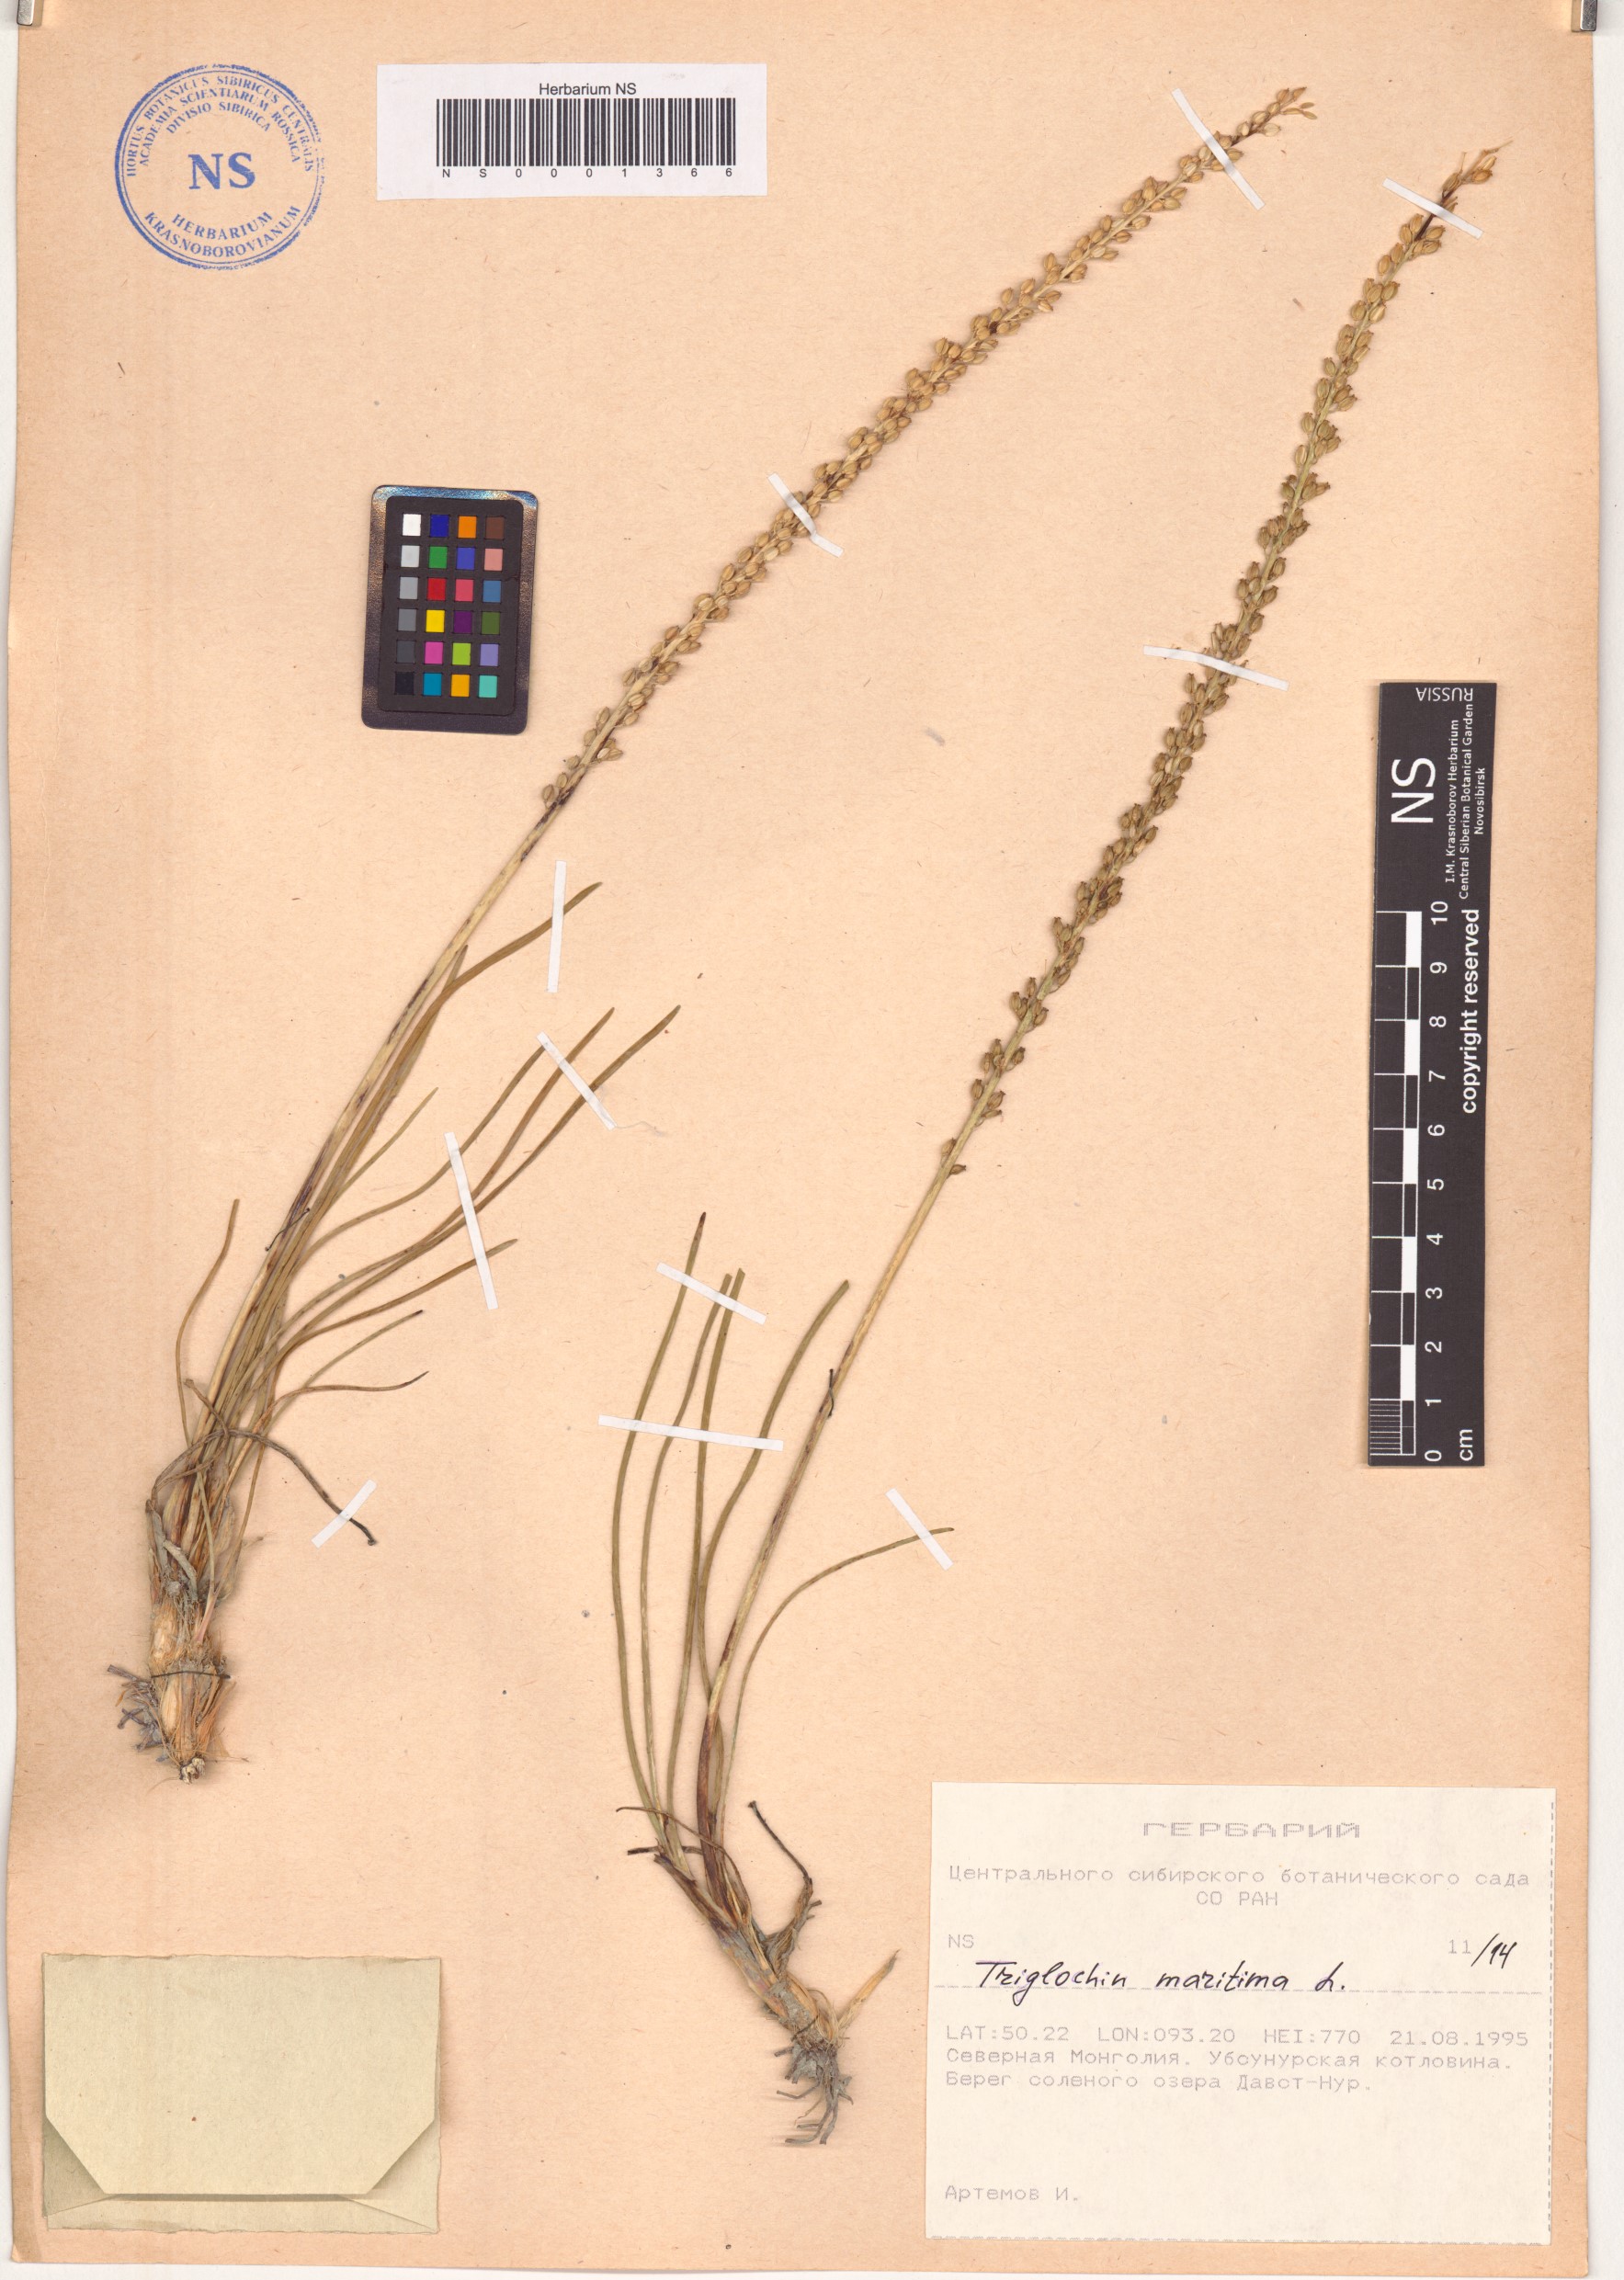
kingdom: Plantae
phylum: Tracheophyta
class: Liliopsida
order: Alismatales
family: Juncaginaceae
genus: Triglochin
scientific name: Triglochin maritima
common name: Sea arrowgrass
